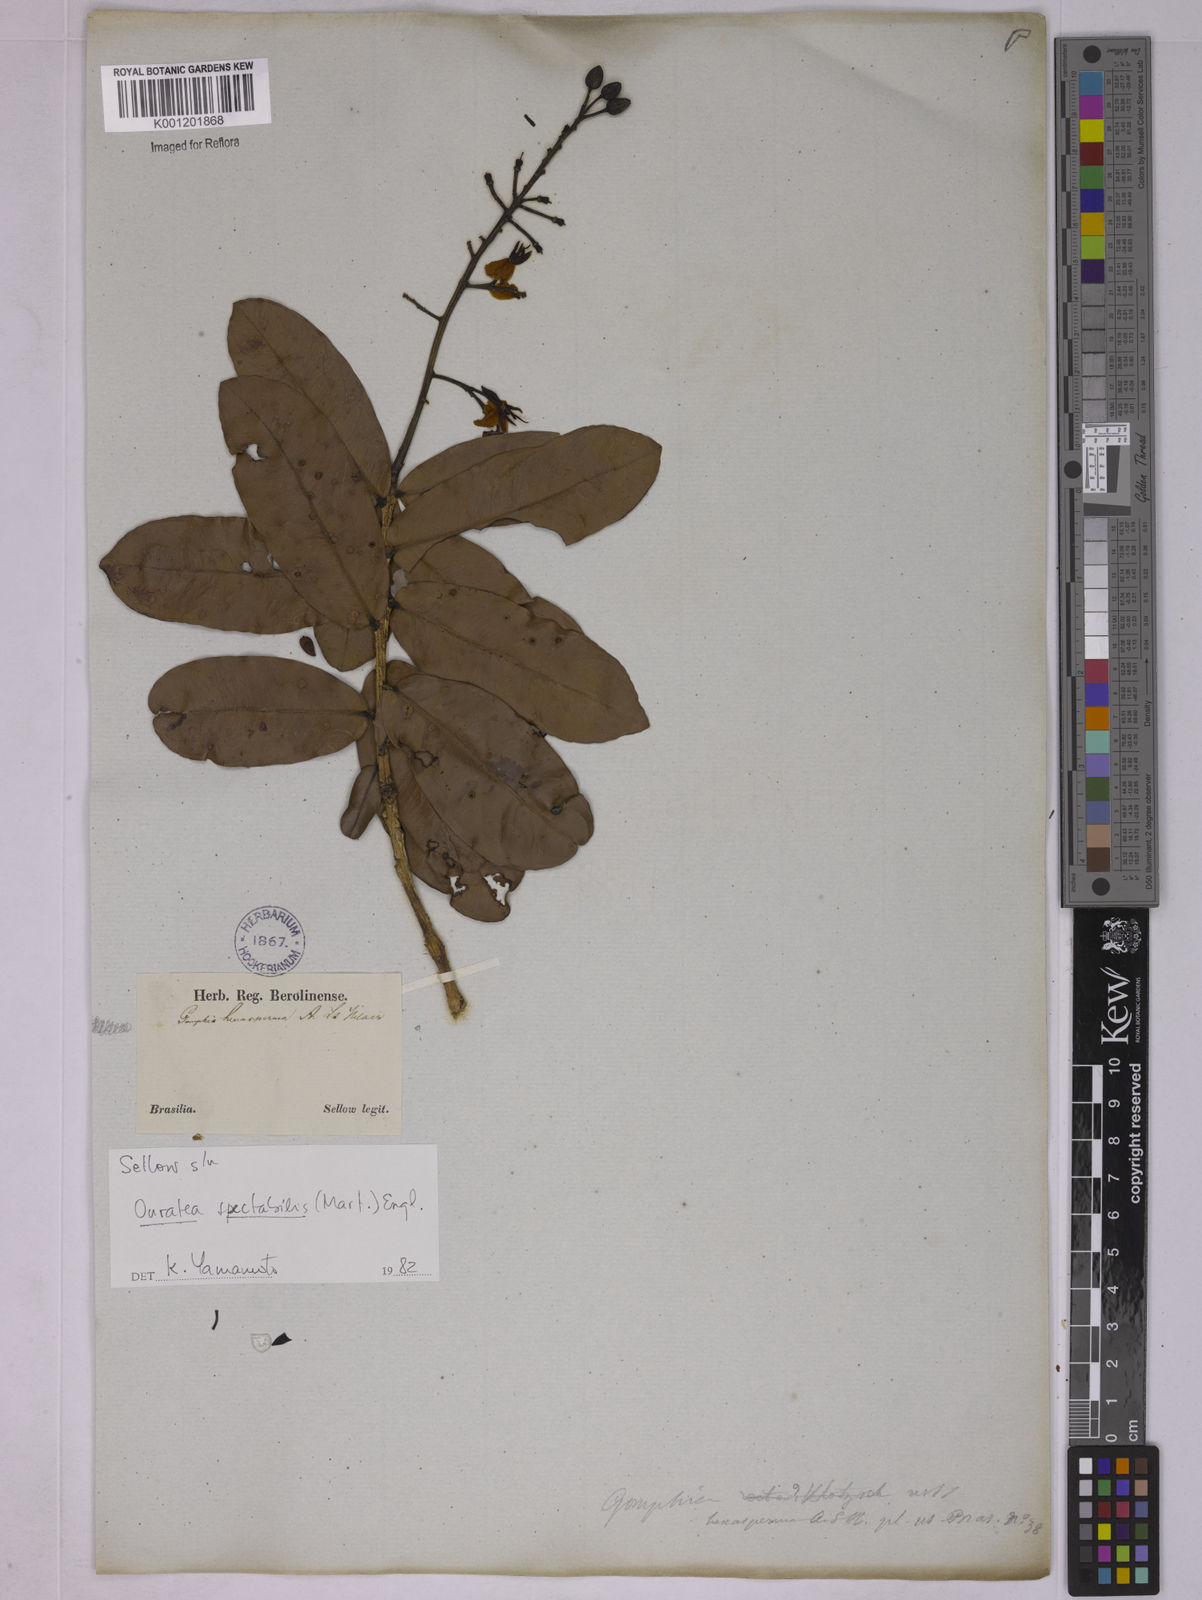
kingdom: Plantae
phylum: Tracheophyta
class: Magnoliopsida
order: Malpighiales
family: Ochnaceae
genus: Ouratea
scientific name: Ouratea spectabilis
